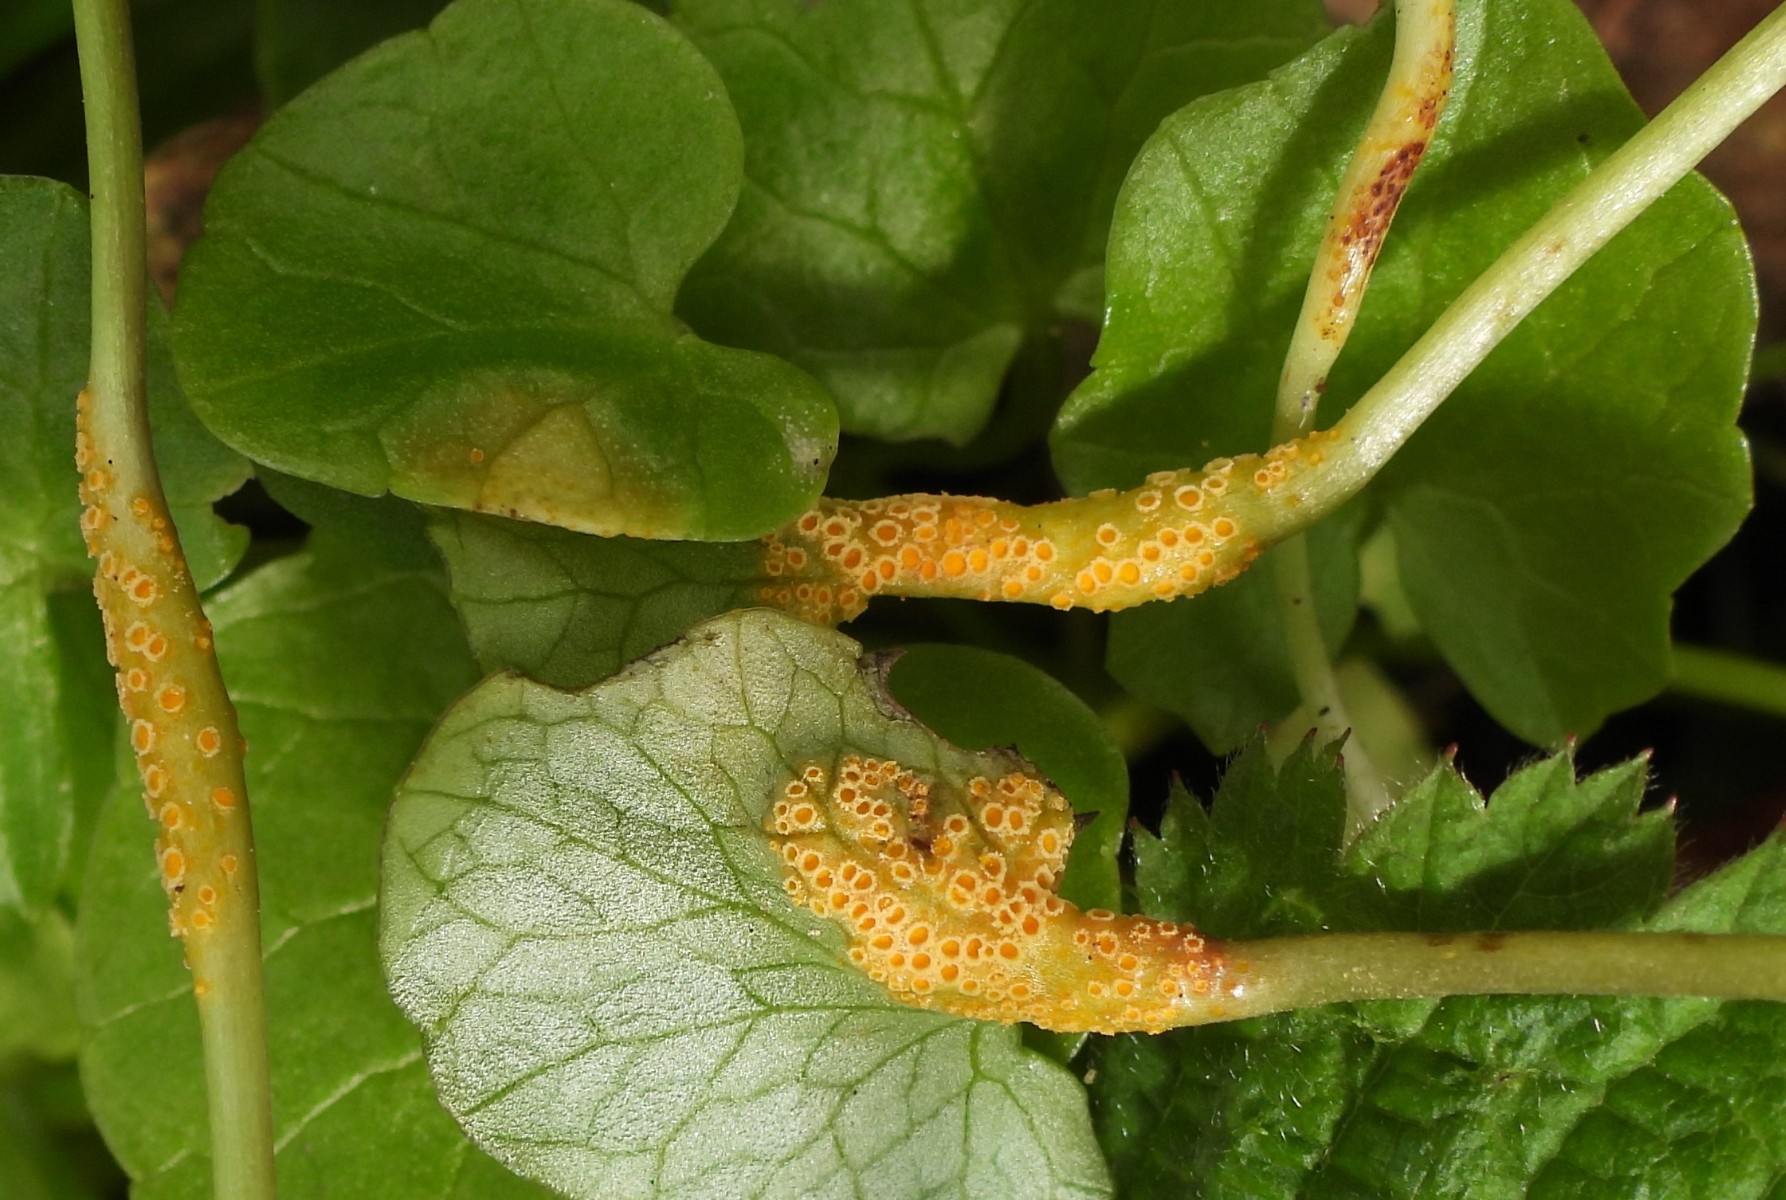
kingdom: Fungi
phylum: Basidiomycota
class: Pucciniomycetes
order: Pucciniales
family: Pucciniaceae
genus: Uromyces
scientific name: Uromyces dactylidis
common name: ranunkel-encellerust
